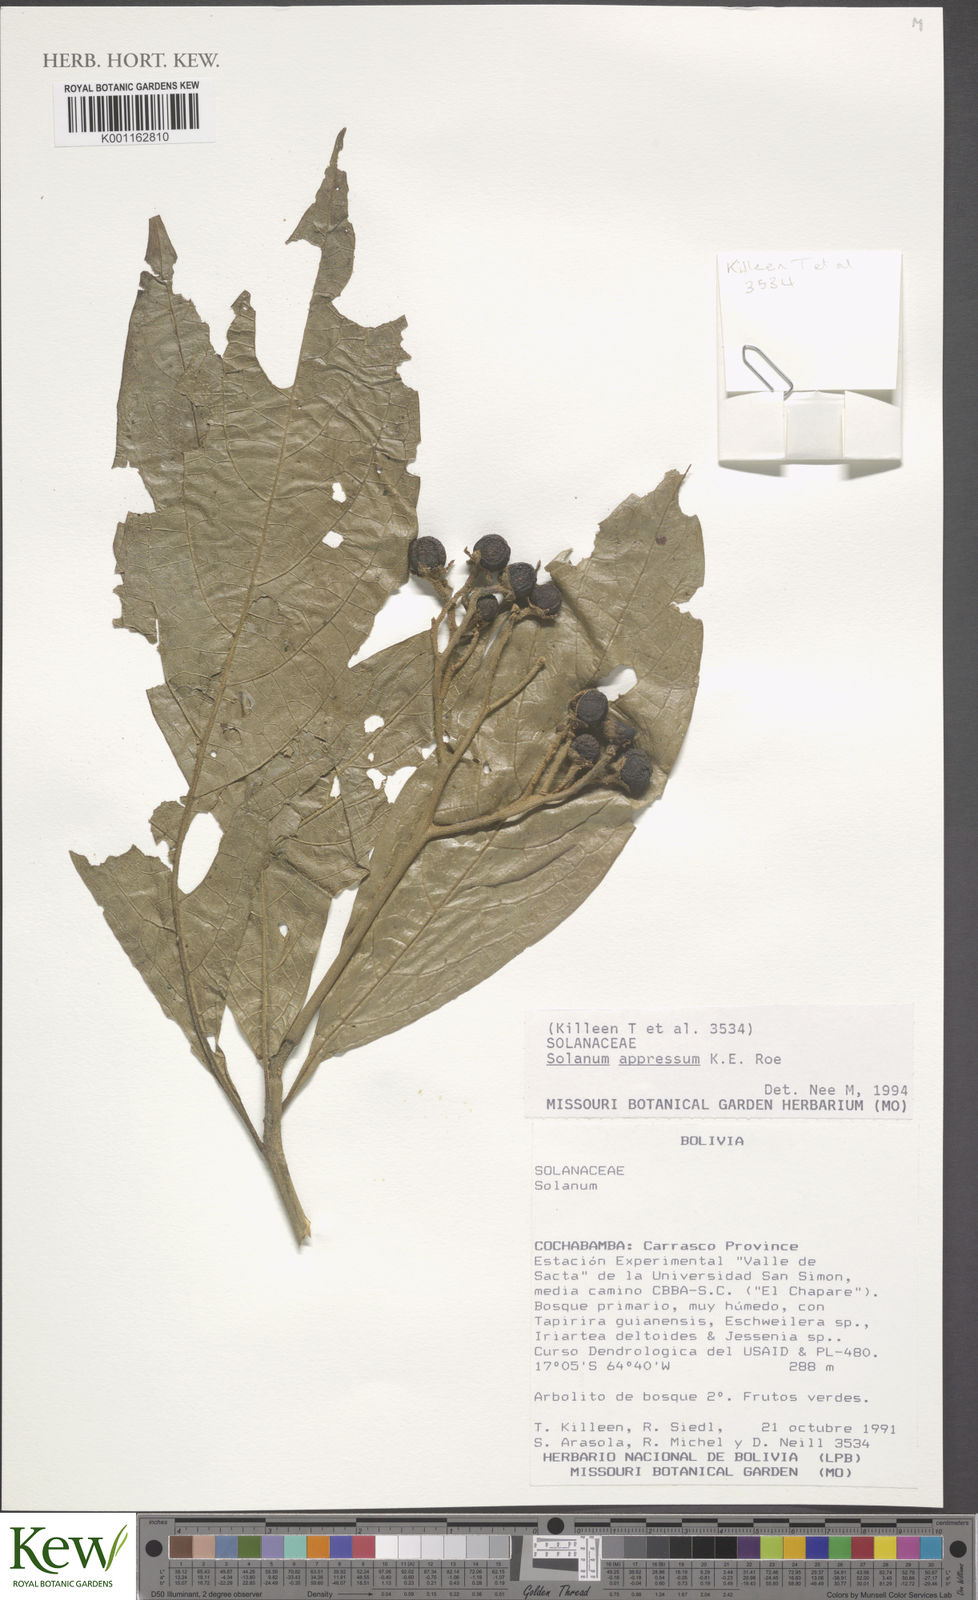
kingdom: Plantae
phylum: Tracheophyta
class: Magnoliopsida
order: Solanales
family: Solanaceae
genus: Solanum
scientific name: Solanum appressum
